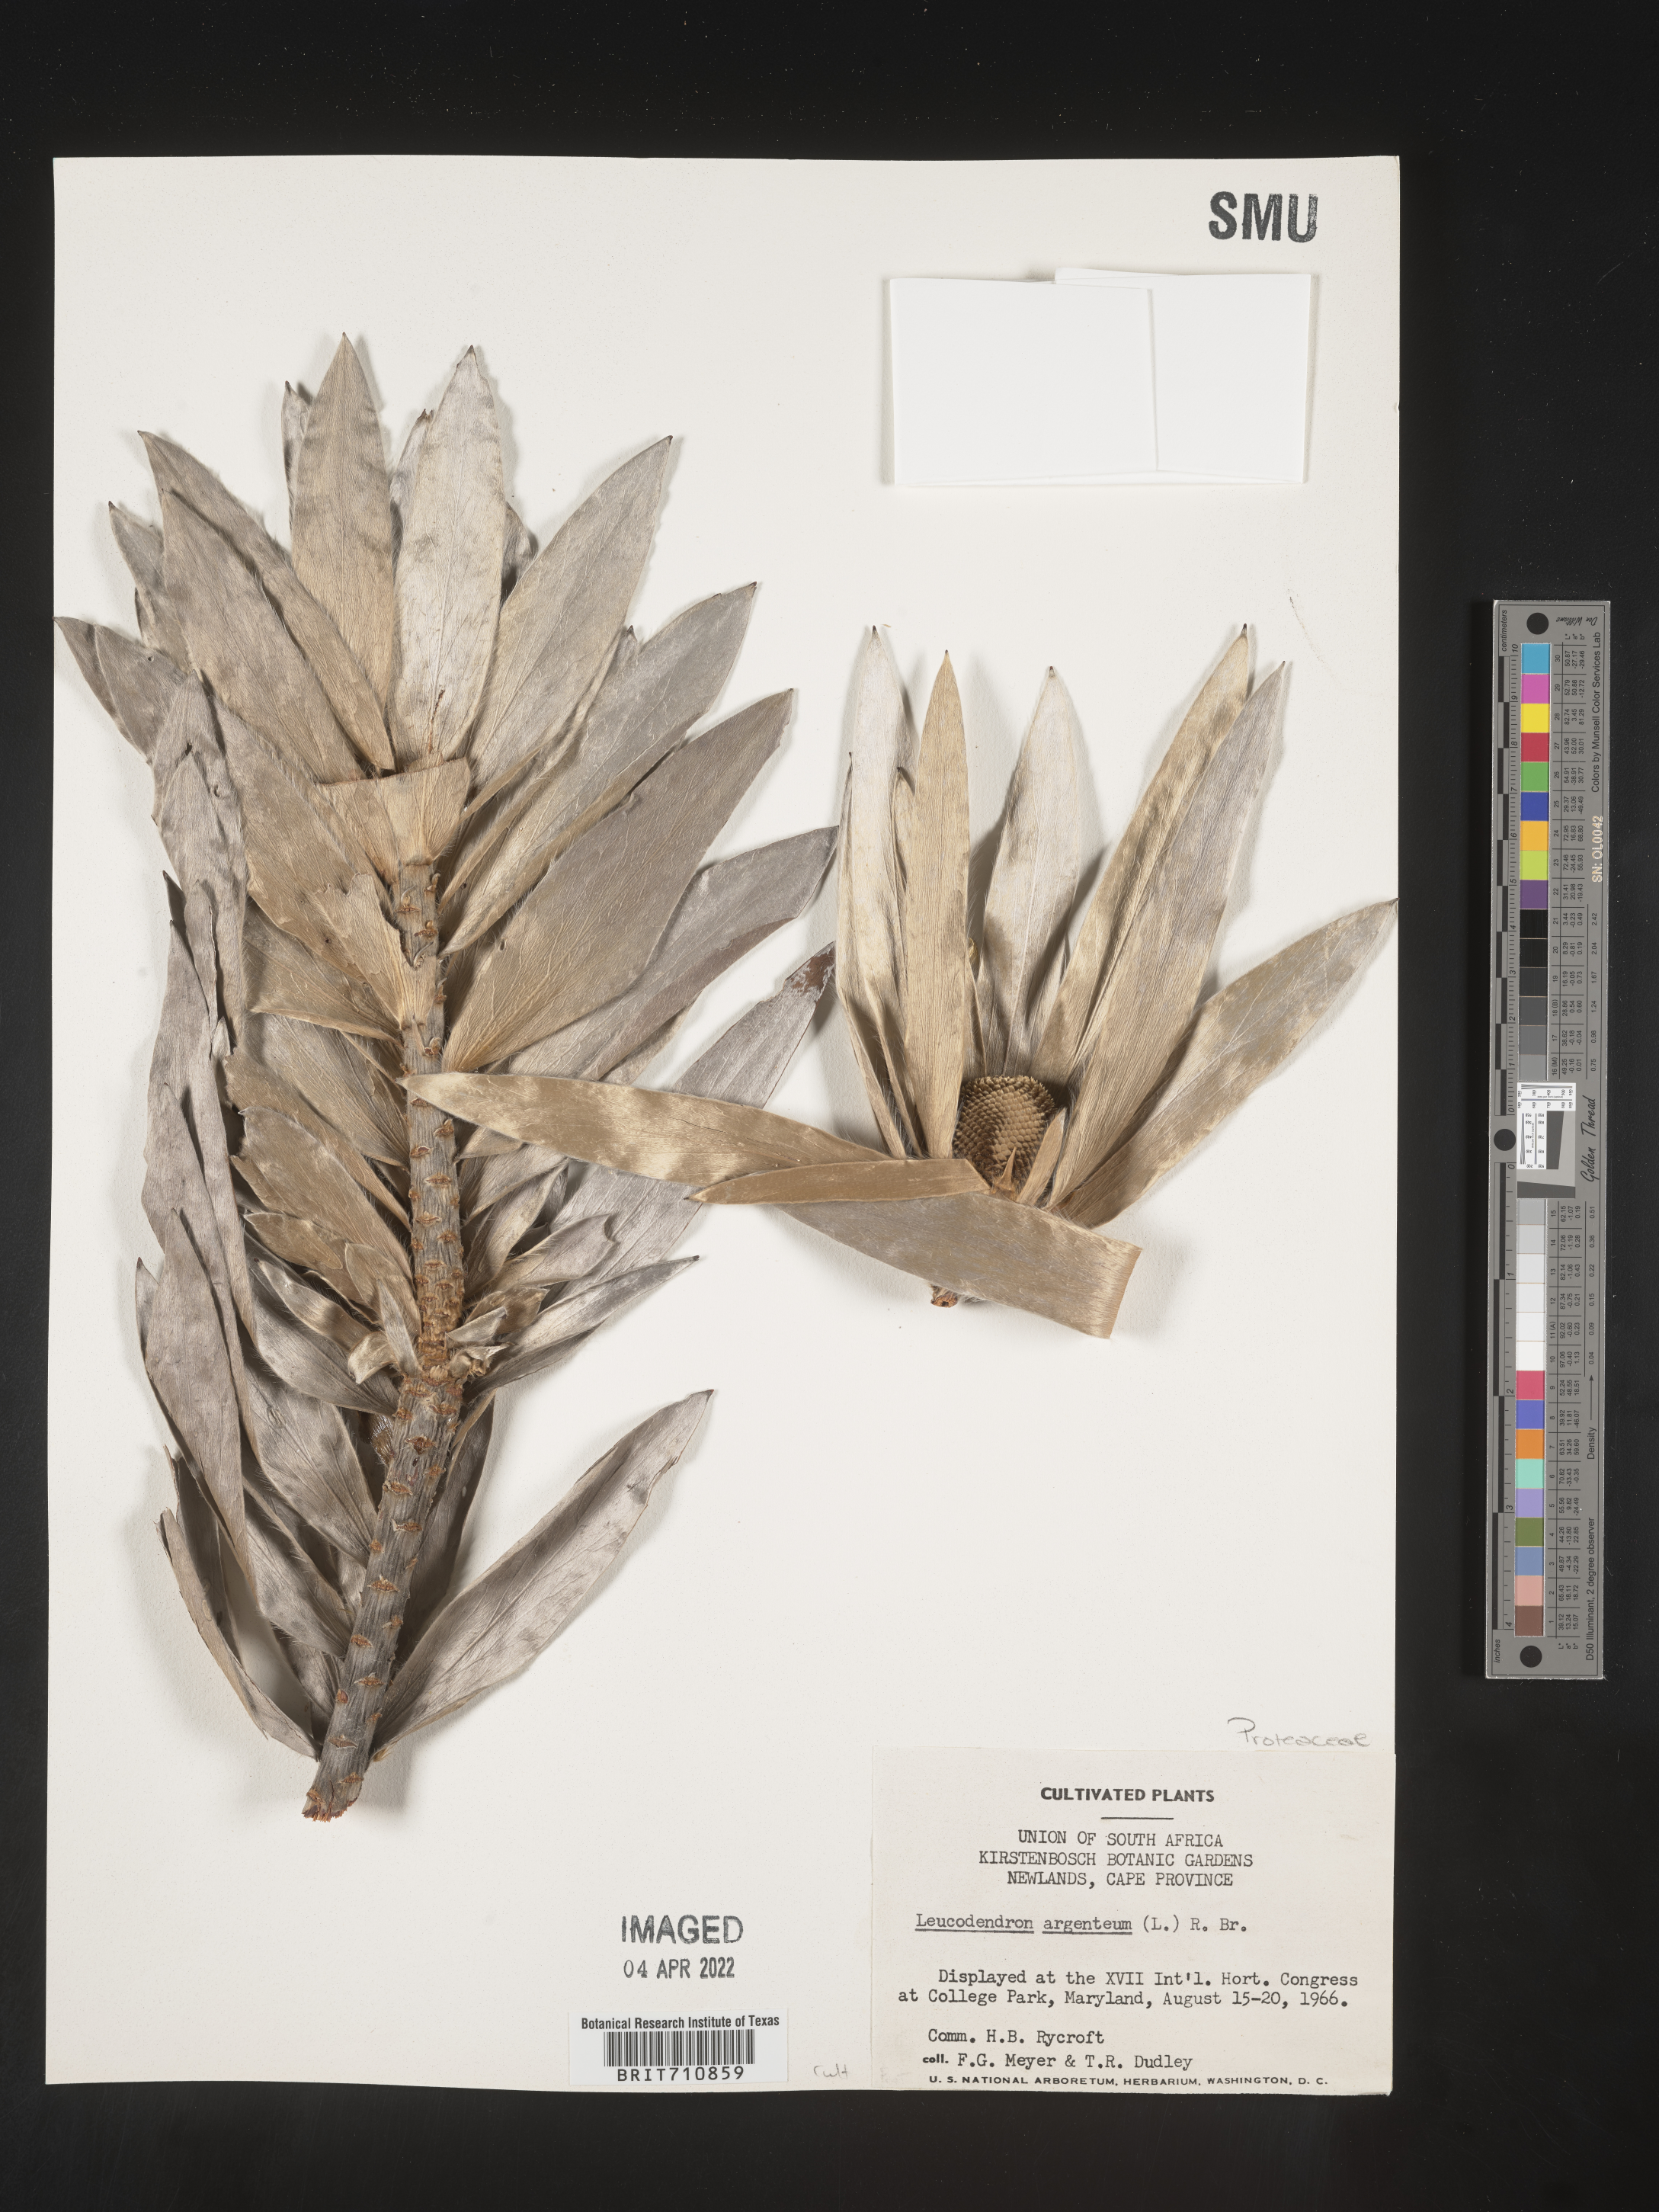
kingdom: Plantae
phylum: Tracheophyta
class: Magnoliopsida
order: Proteales
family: Proteaceae
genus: Leucadendron
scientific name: Leucadendron
